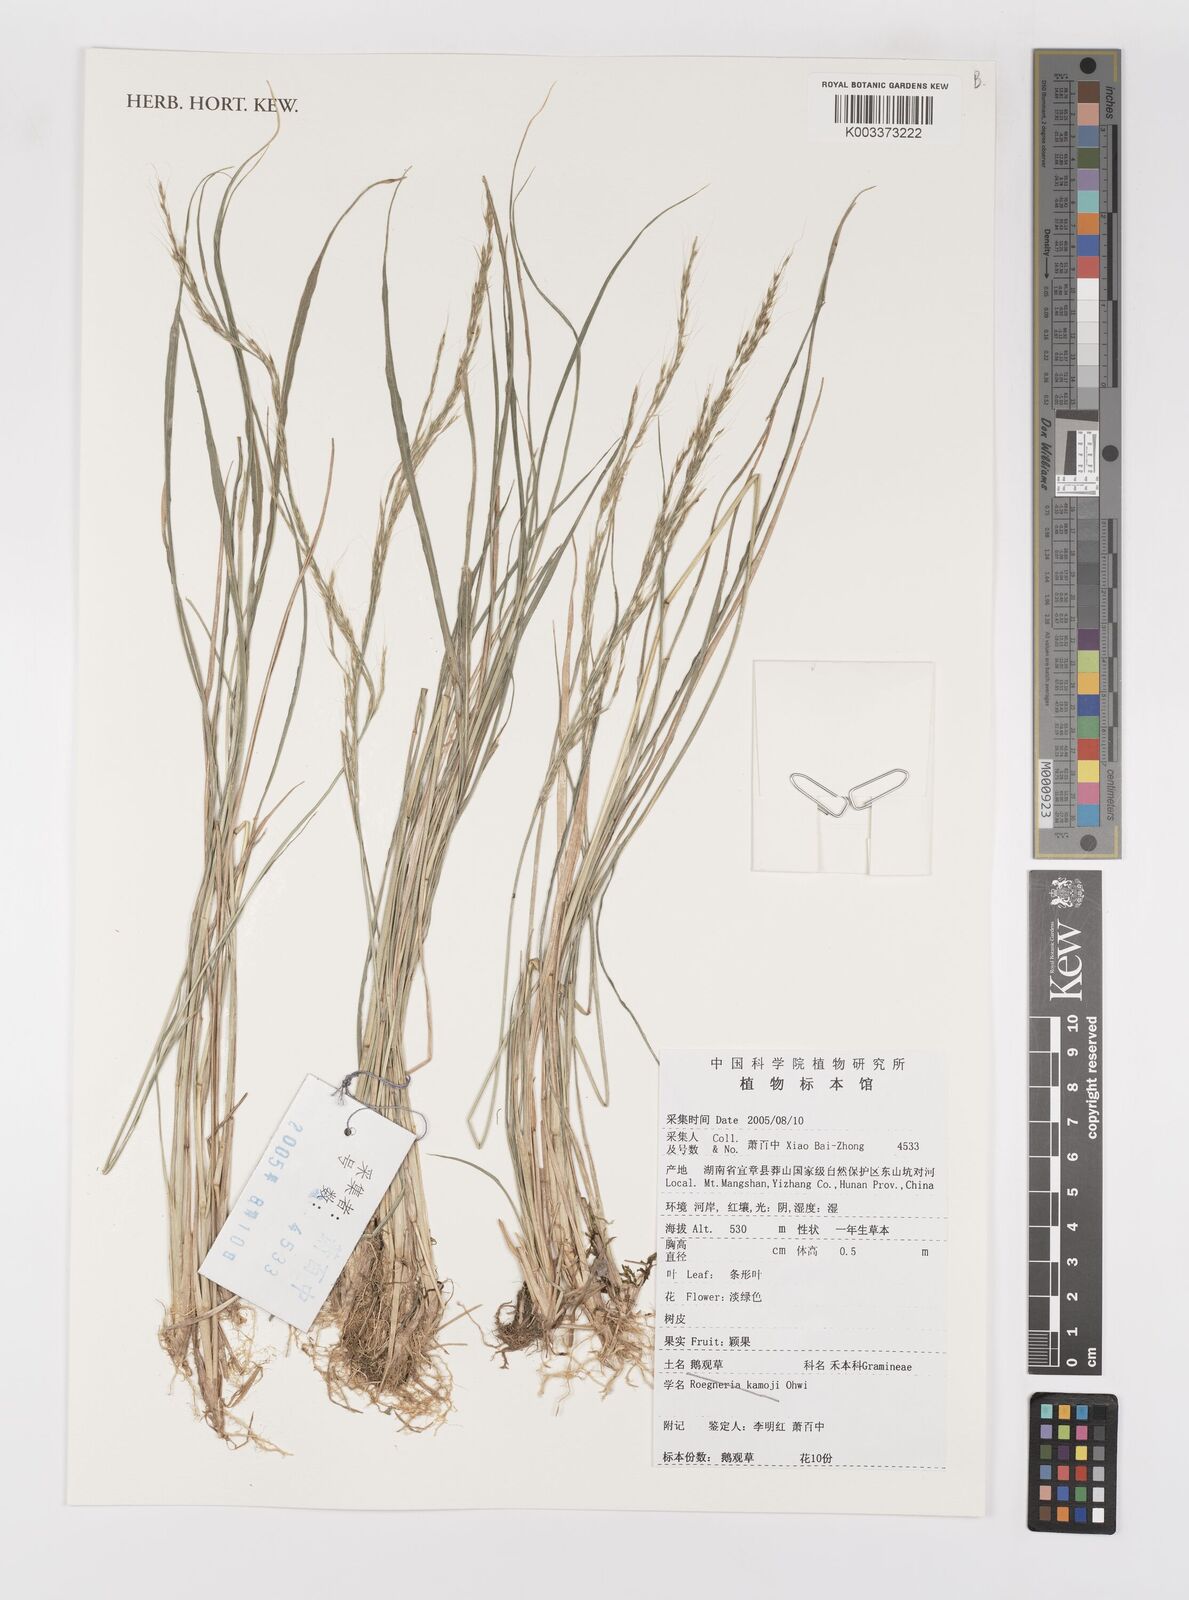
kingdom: Plantae
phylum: Tracheophyta
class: Liliopsida
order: Poales
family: Poaceae
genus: Elymus
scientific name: Elymus
